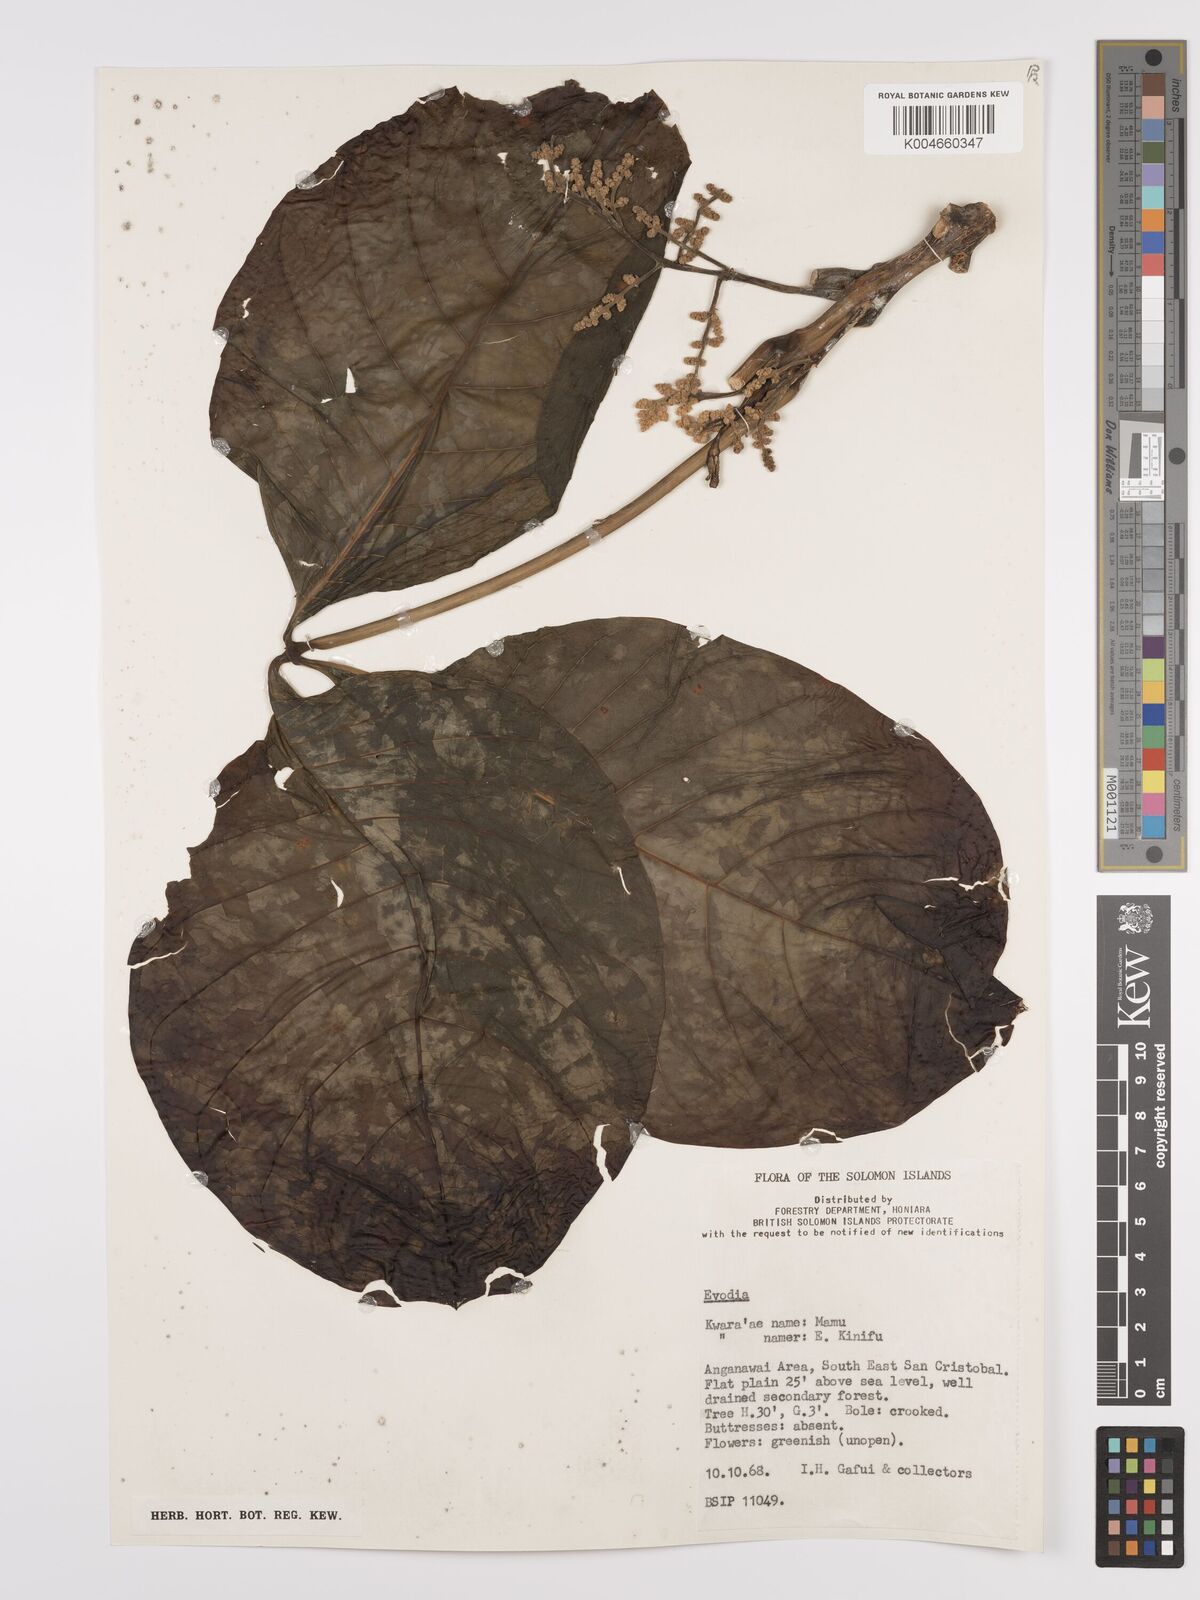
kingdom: Plantae
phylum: Tracheophyta
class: Magnoliopsida
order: Sapindales
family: Rutaceae
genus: Euodia
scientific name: Euodia
